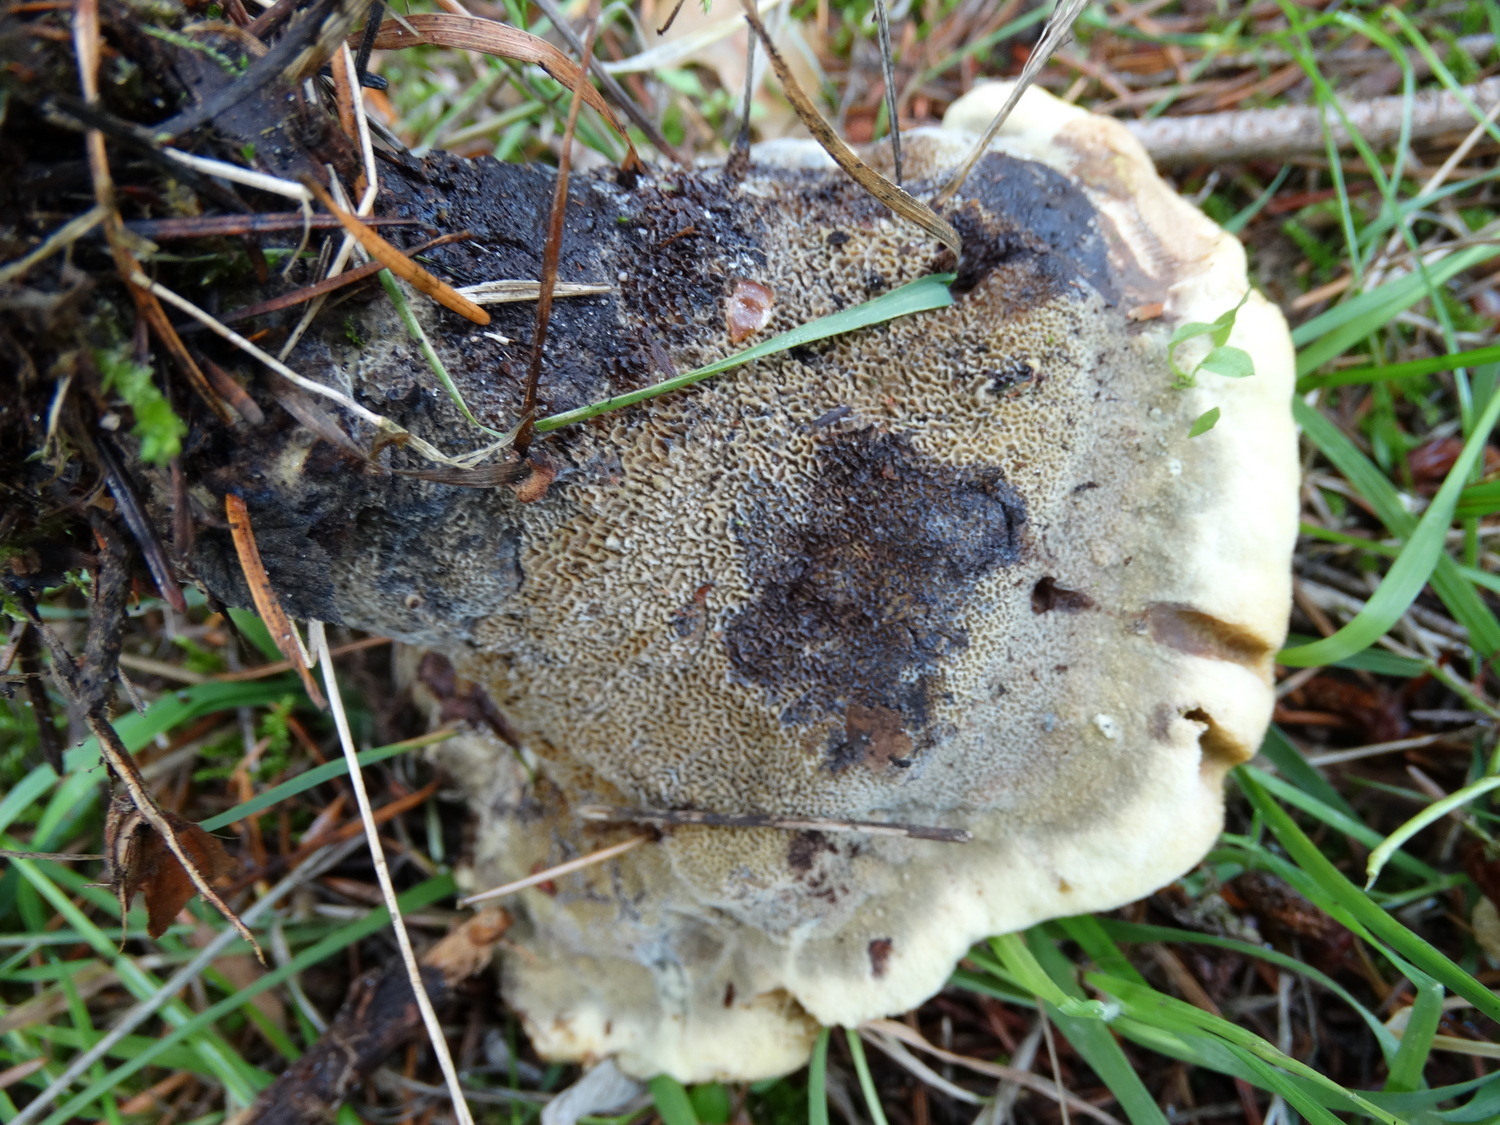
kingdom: Fungi
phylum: Basidiomycota
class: Agaricomycetes
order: Polyporales
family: Laetiporaceae
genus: Phaeolus
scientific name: Phaeolus schweinitzii
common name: brunporesvamp
